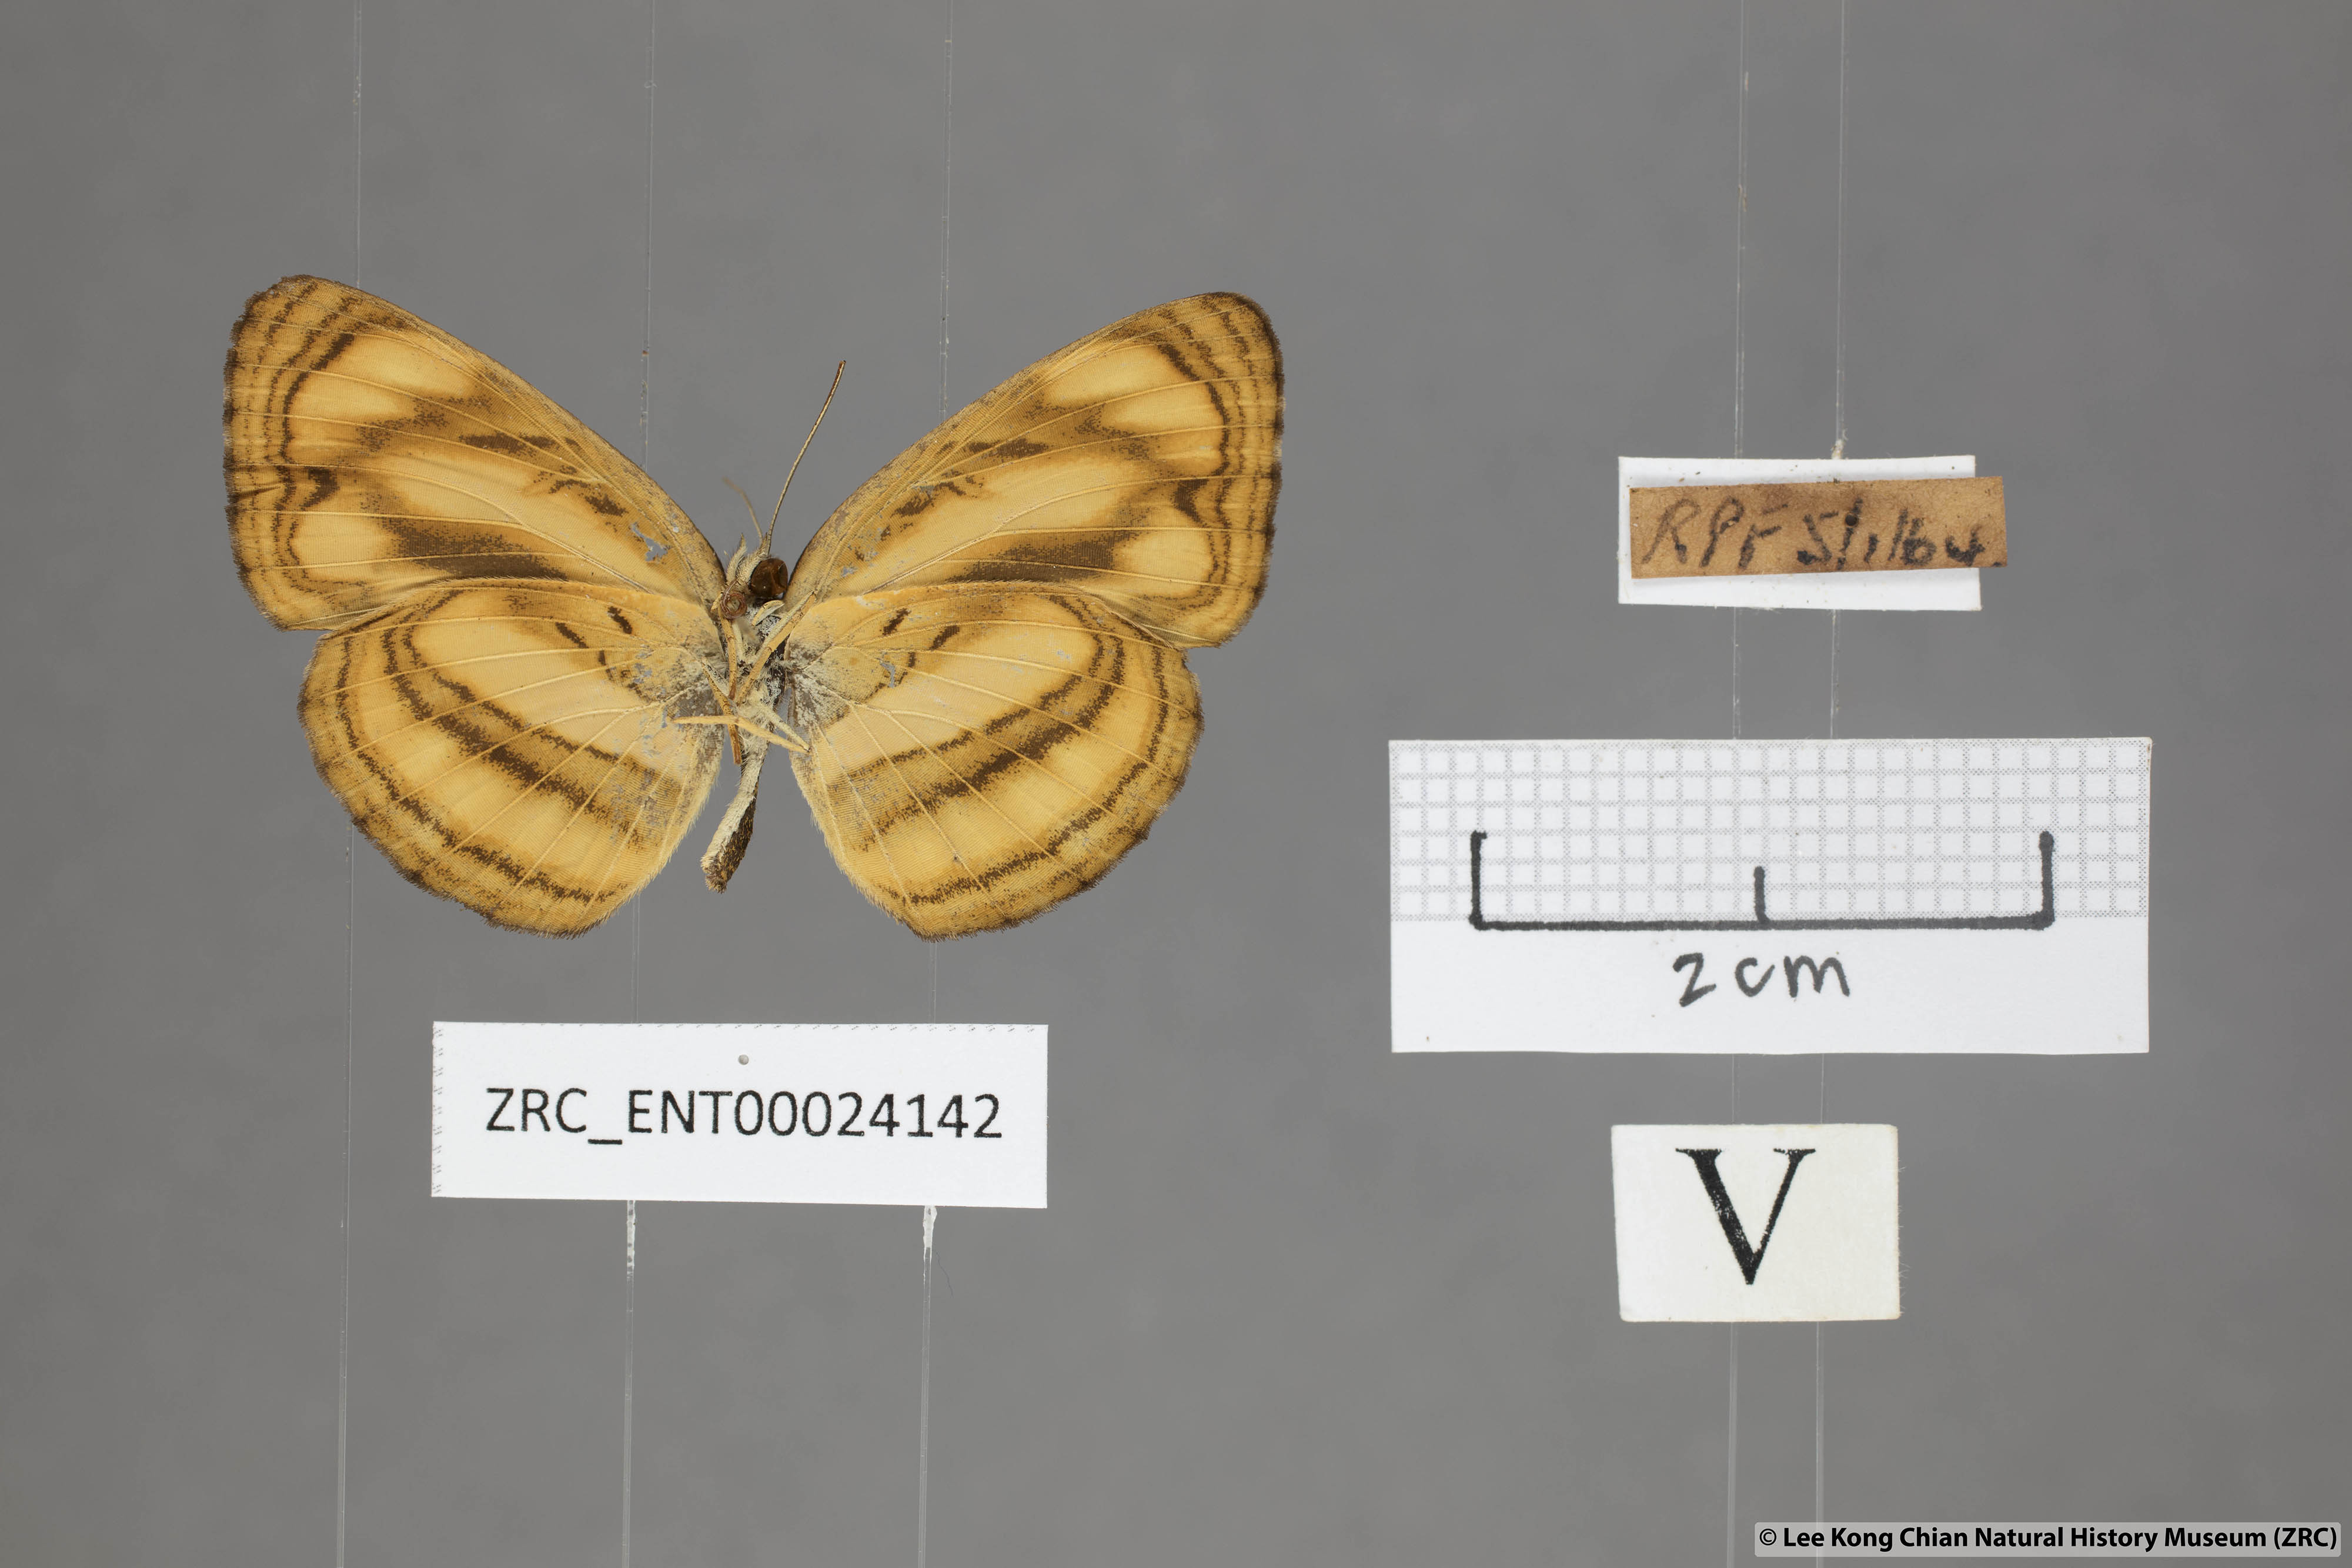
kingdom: Animalia
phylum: Arthropoda
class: Insecta
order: Lepidoptera
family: Nymphalidae
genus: Pantoporia
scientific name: Pantoporia paraka
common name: Perak lascar
